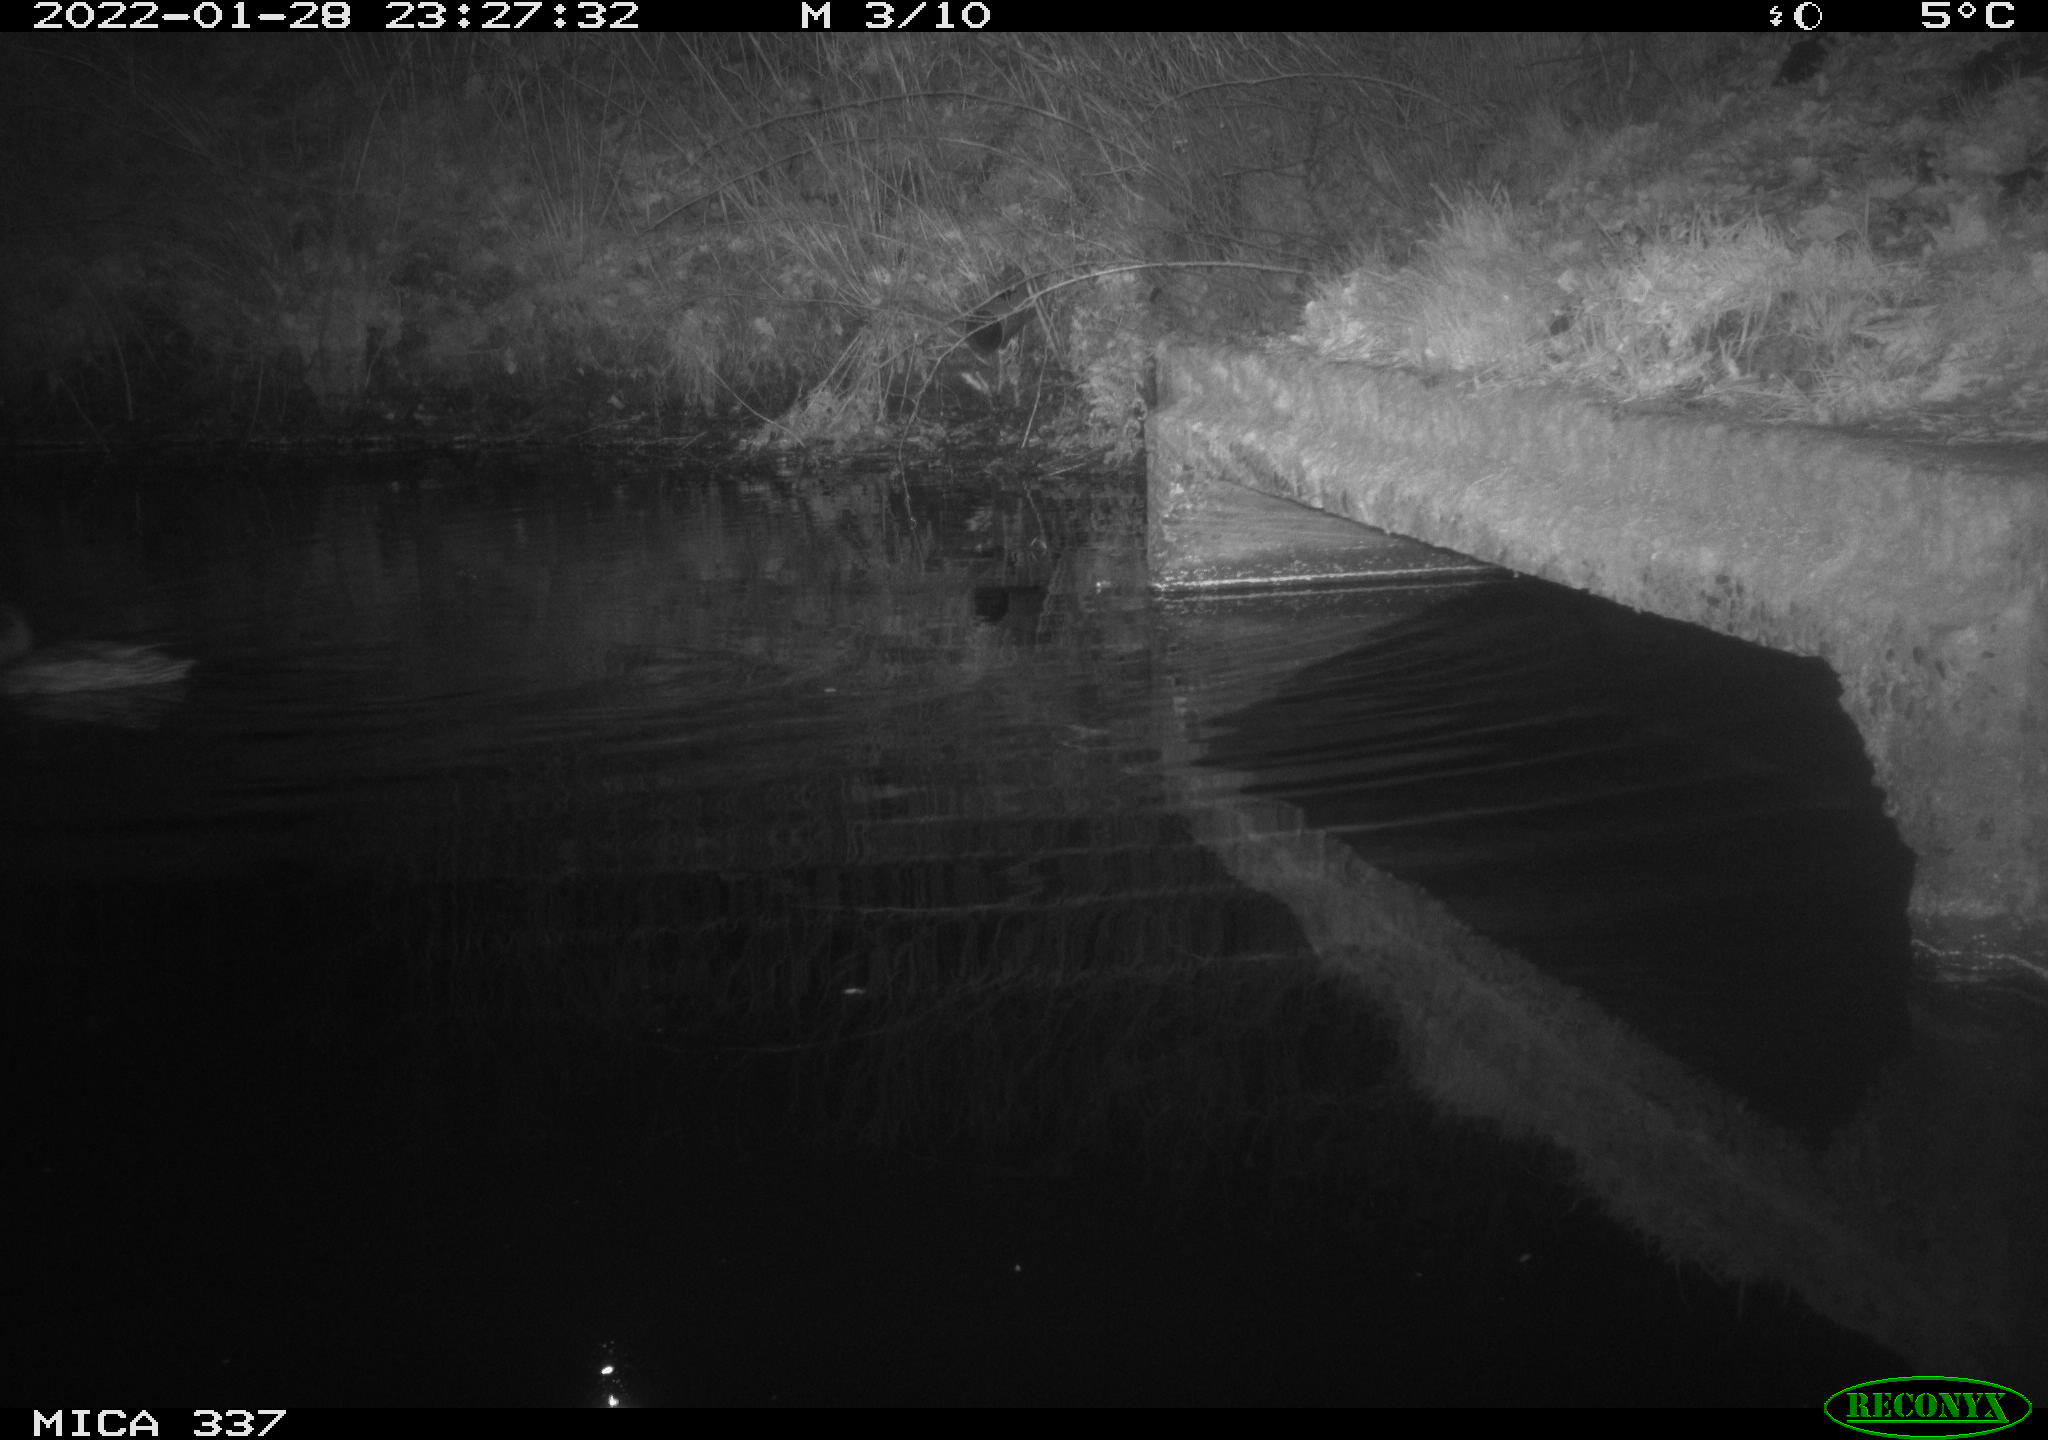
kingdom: Animalia
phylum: Chordata
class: Aves
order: Anseriformes
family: Anatidae
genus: Anas
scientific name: Anas platyrhynchos
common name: Mallard
